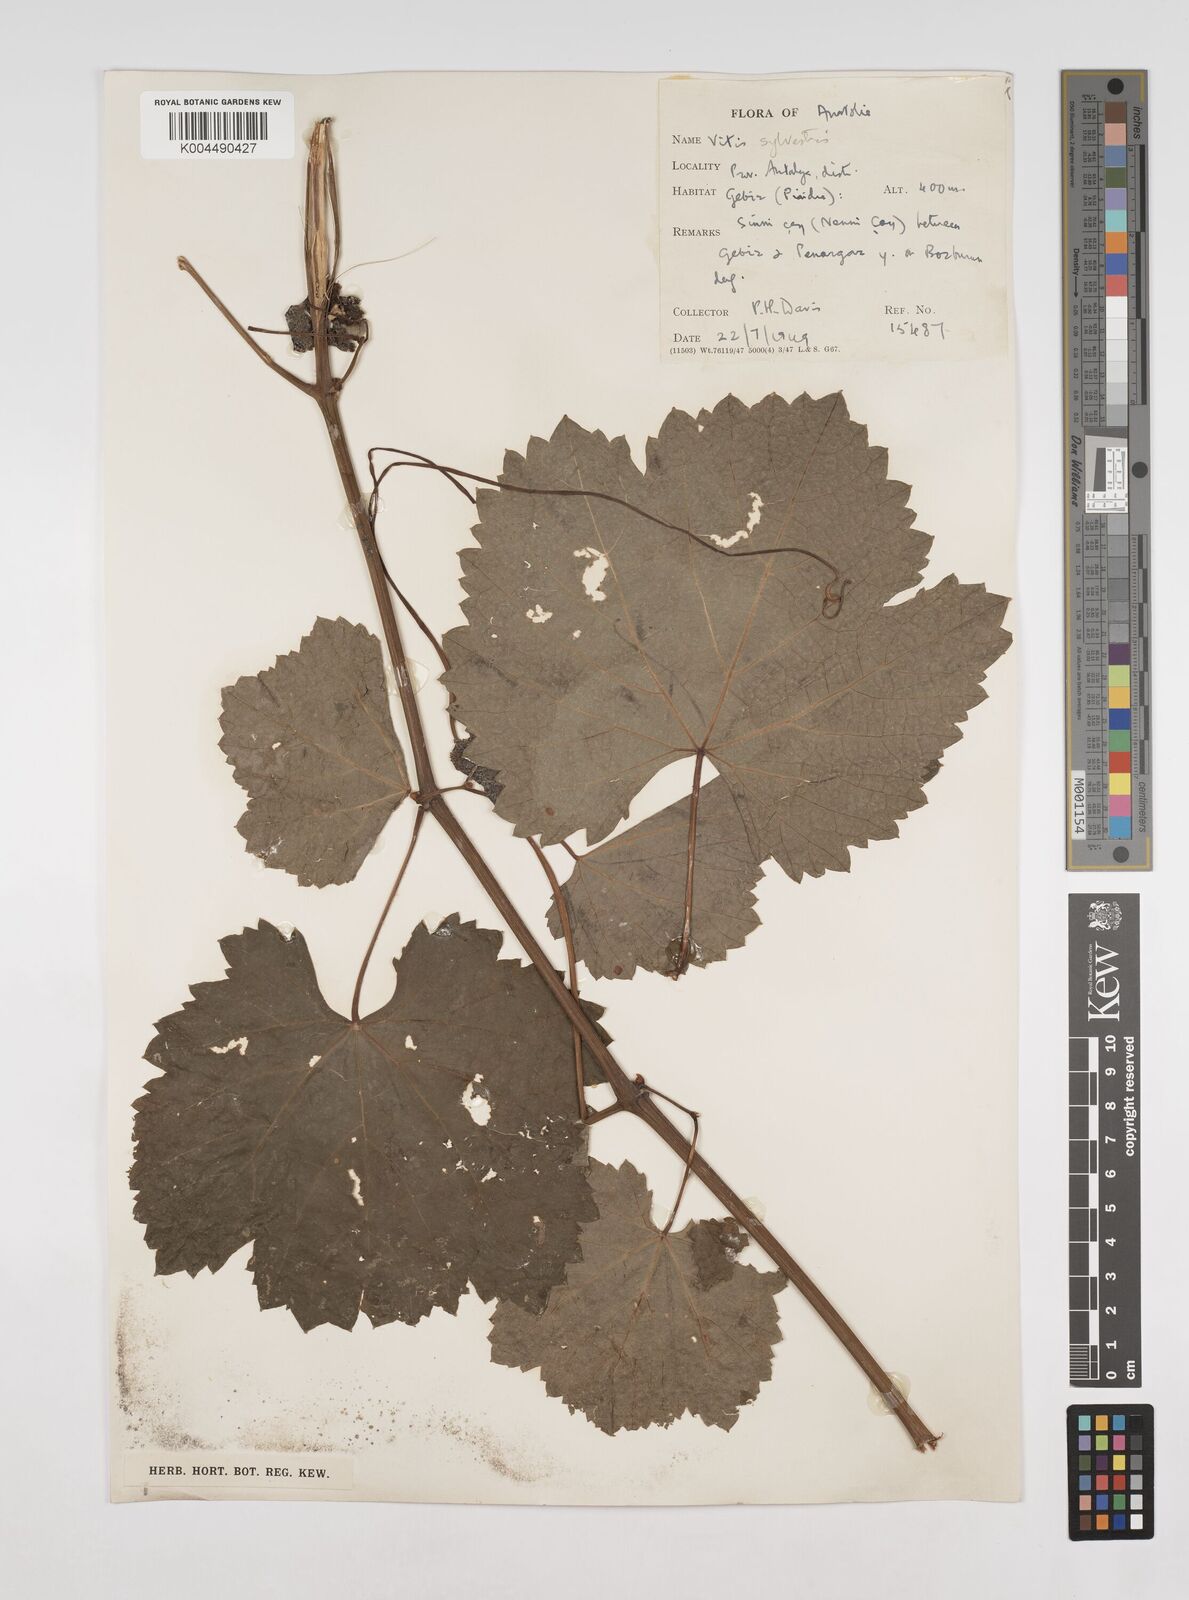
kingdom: Plantae
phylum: Tracheophyta
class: Magnoliopsida
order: Vitales
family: Vitaceae
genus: Vitis
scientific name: Vitis gmelinii
